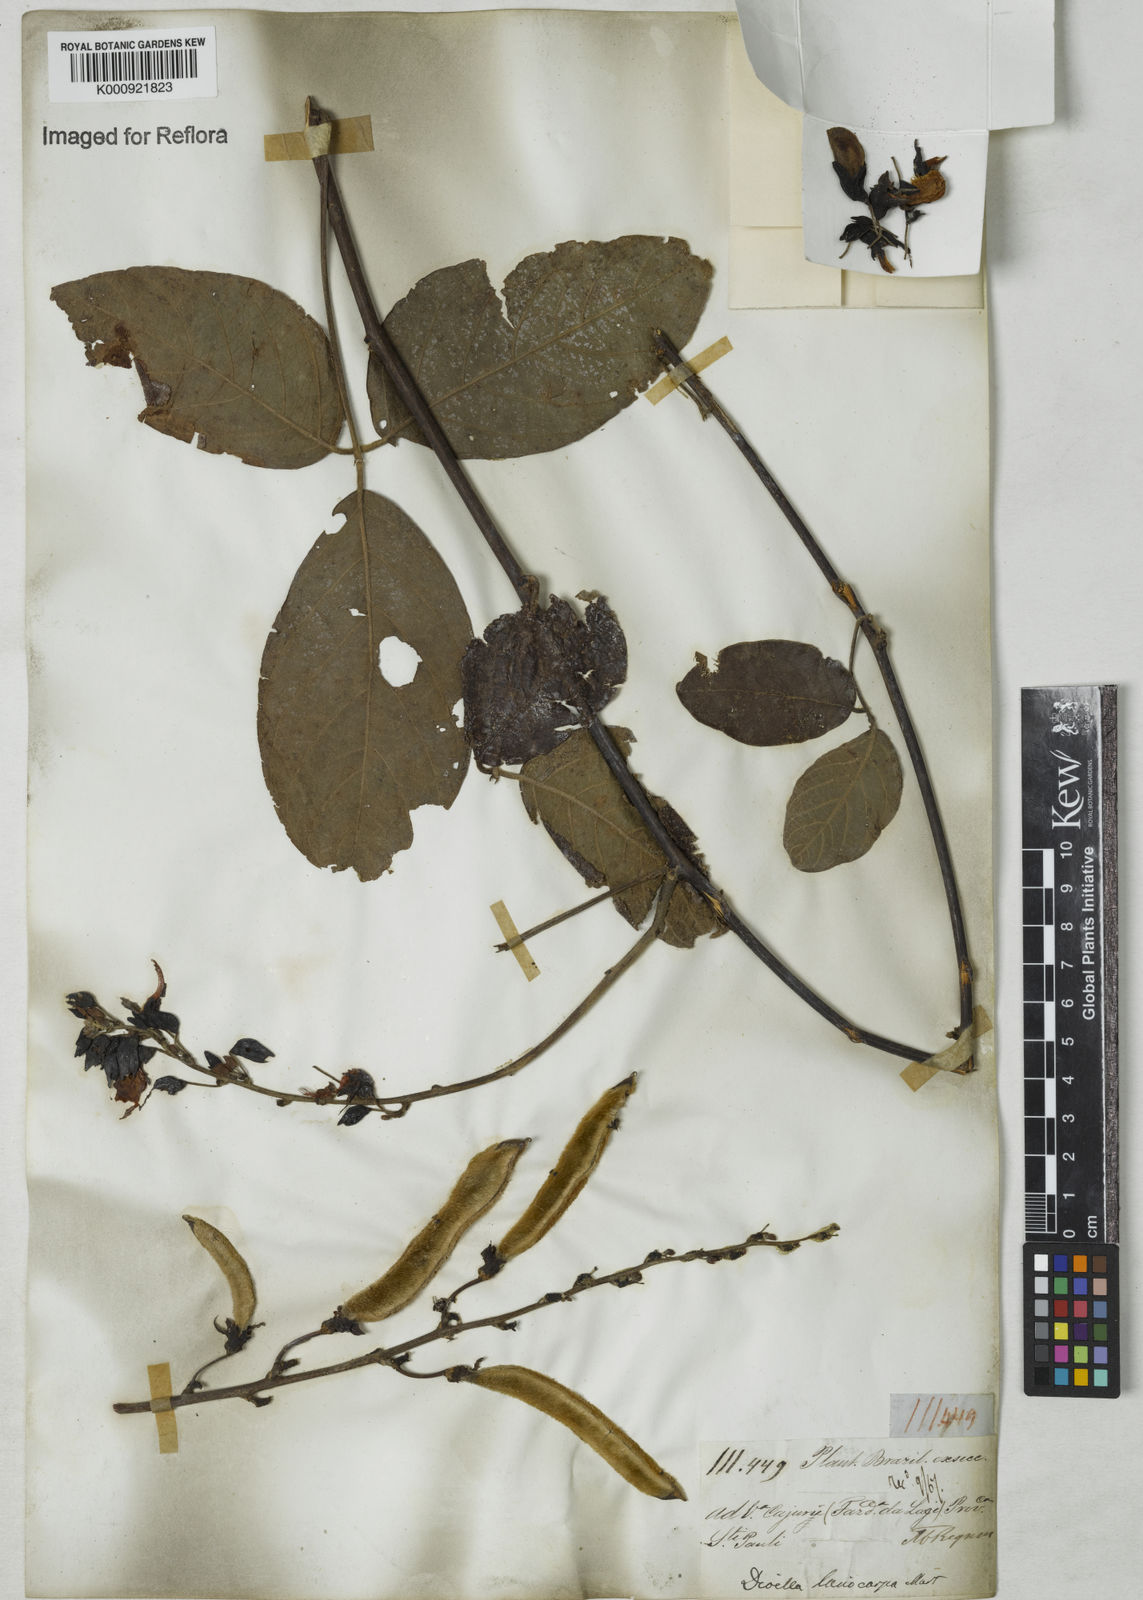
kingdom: Plantae
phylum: Tracheophyta
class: Magnoliopsida
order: Fabales
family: Fabaceae
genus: Dioclea
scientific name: Dioclea virgata
